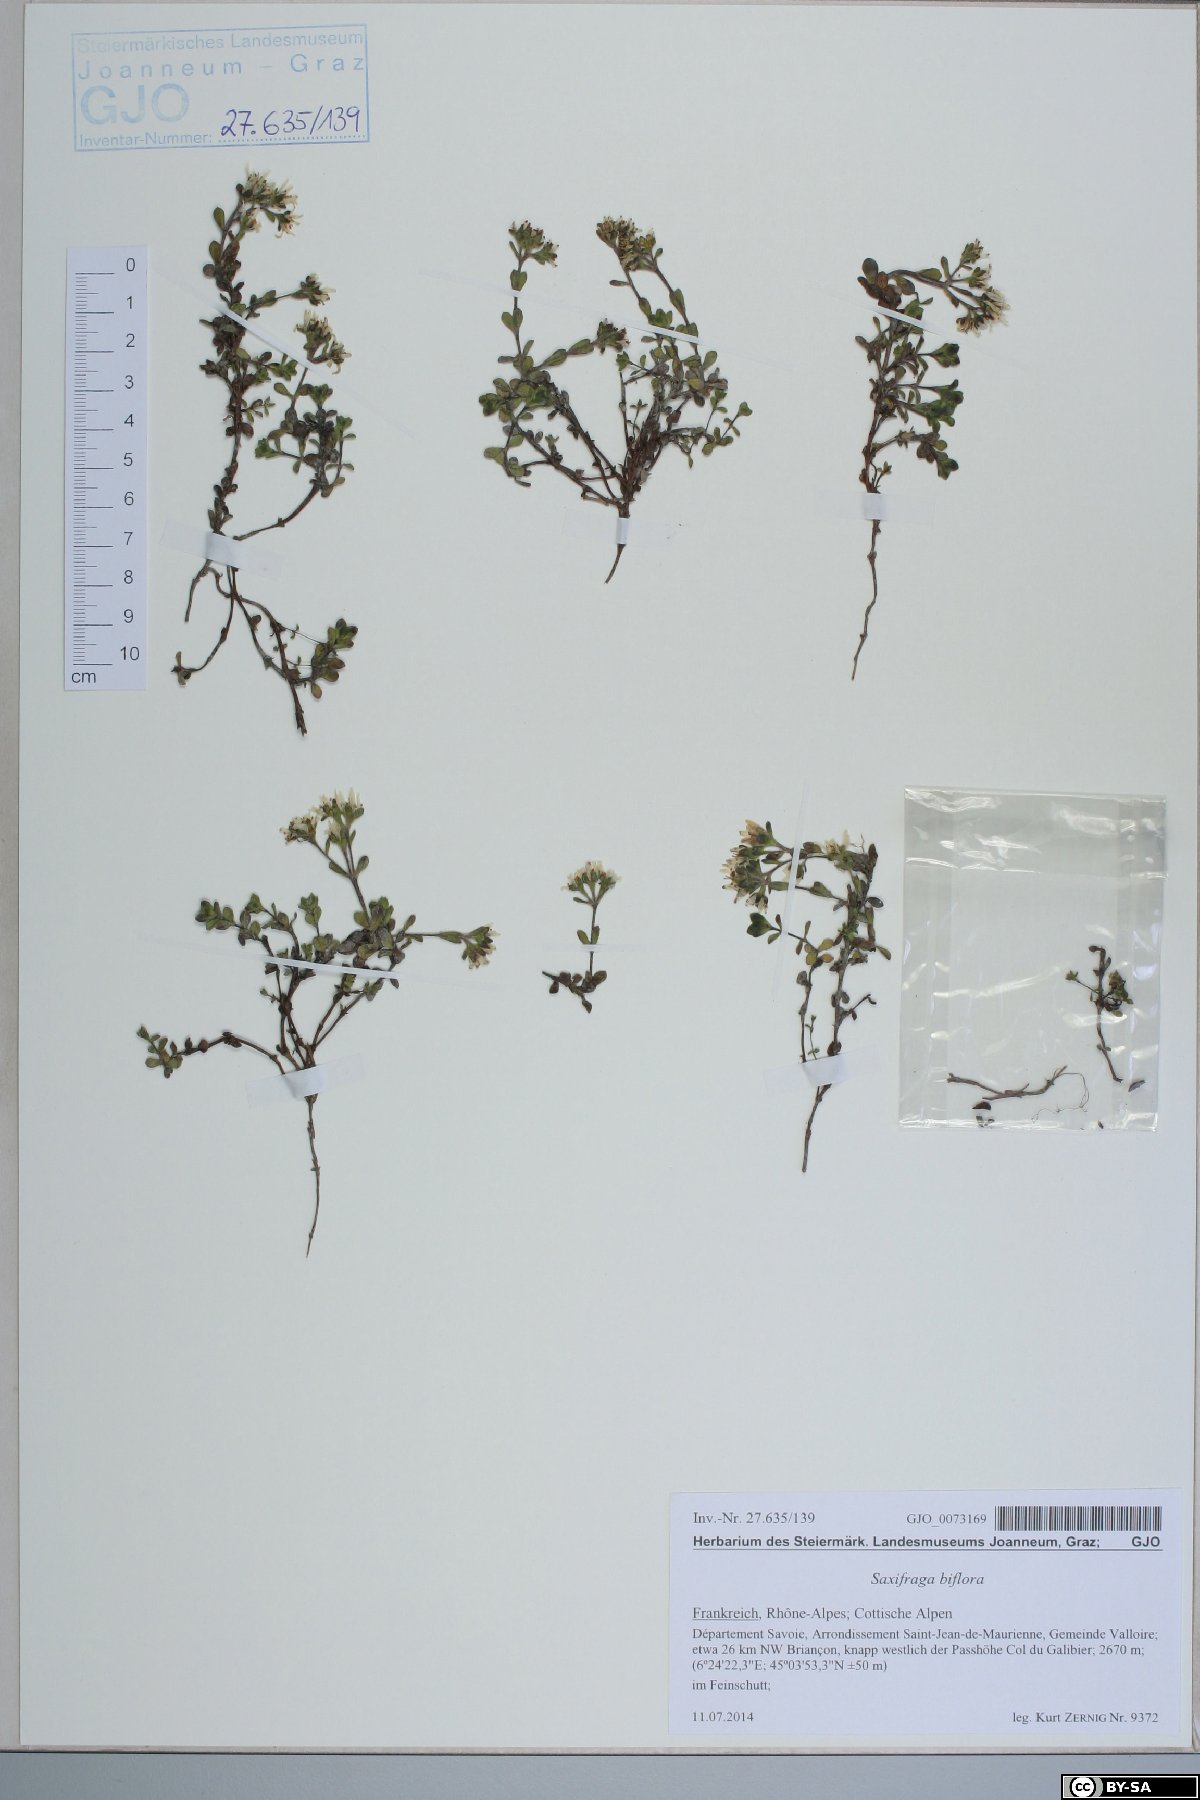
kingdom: Plantae
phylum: Tracheophyta
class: Magnoliopsida
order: Saxifragales
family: Saxifragaceae
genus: Saxifraga
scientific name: Saxifraga biflora
